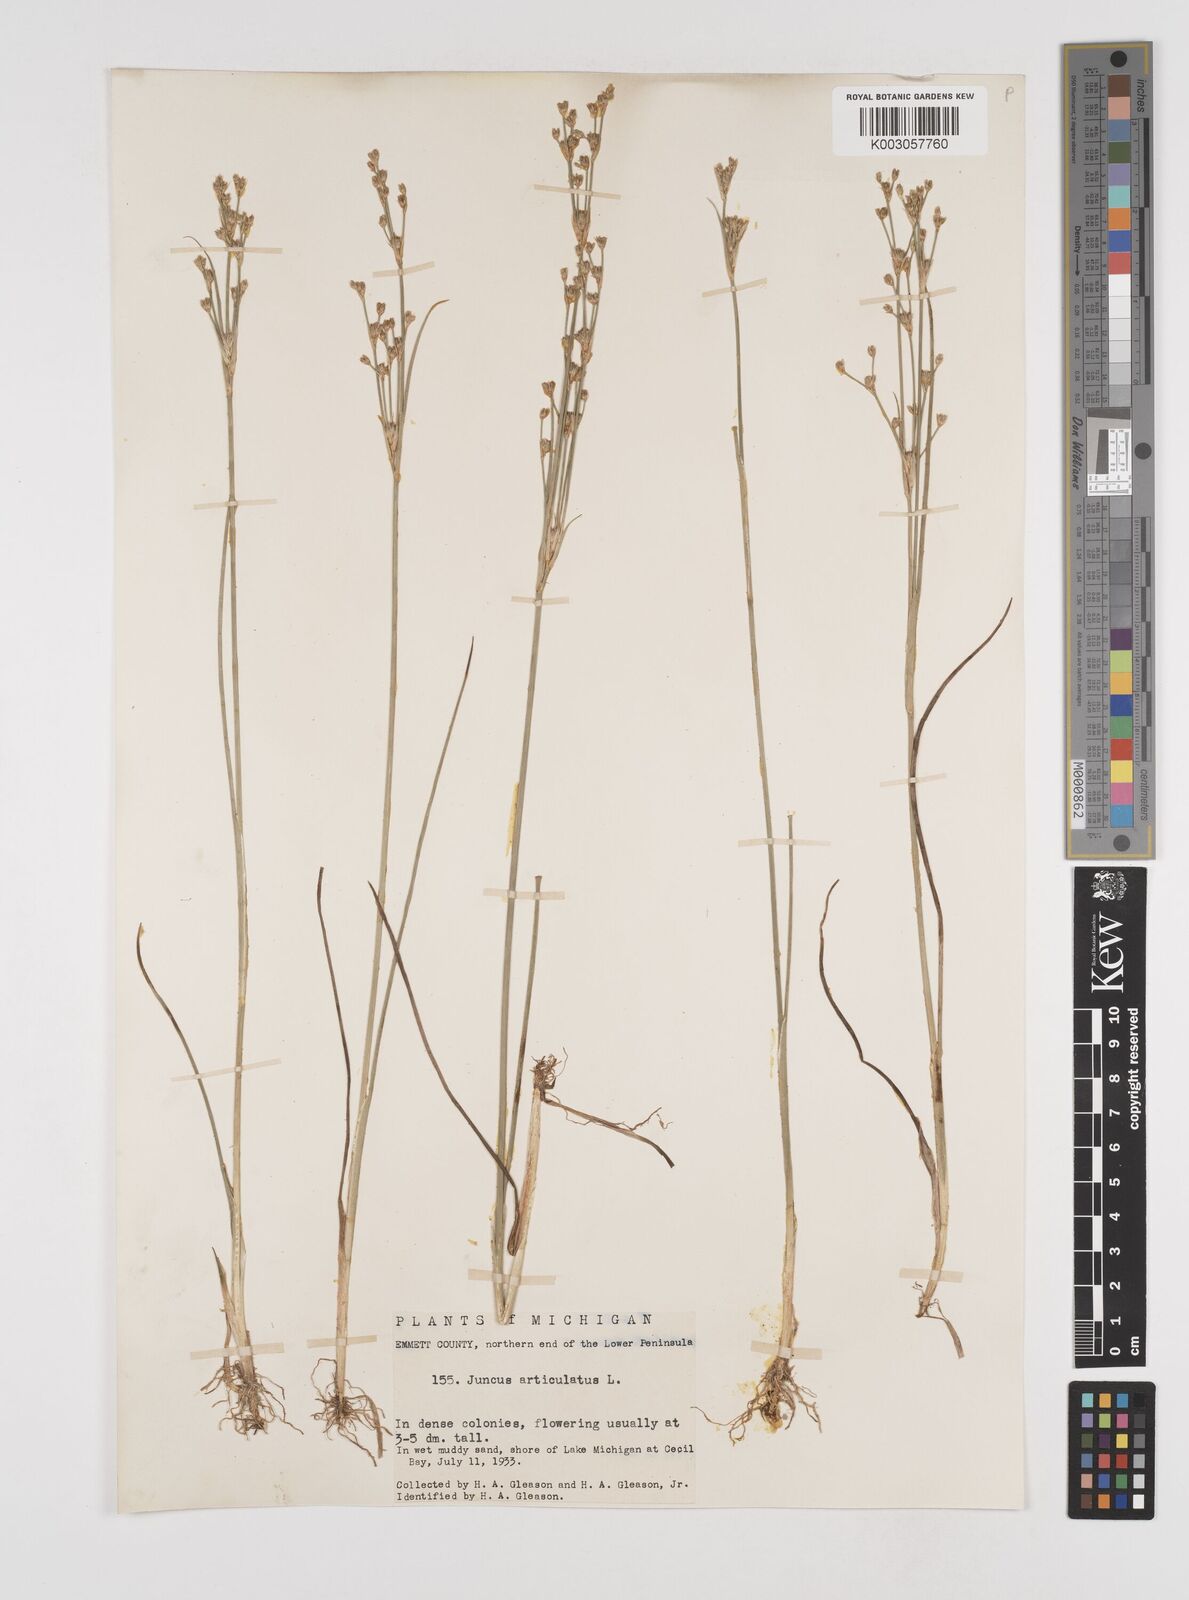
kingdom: Plantae
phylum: Tracheophyta
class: Liliopsida
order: Poales
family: Juncaceae
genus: Juncus
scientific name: Juncus articulatus
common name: Jointed rush
